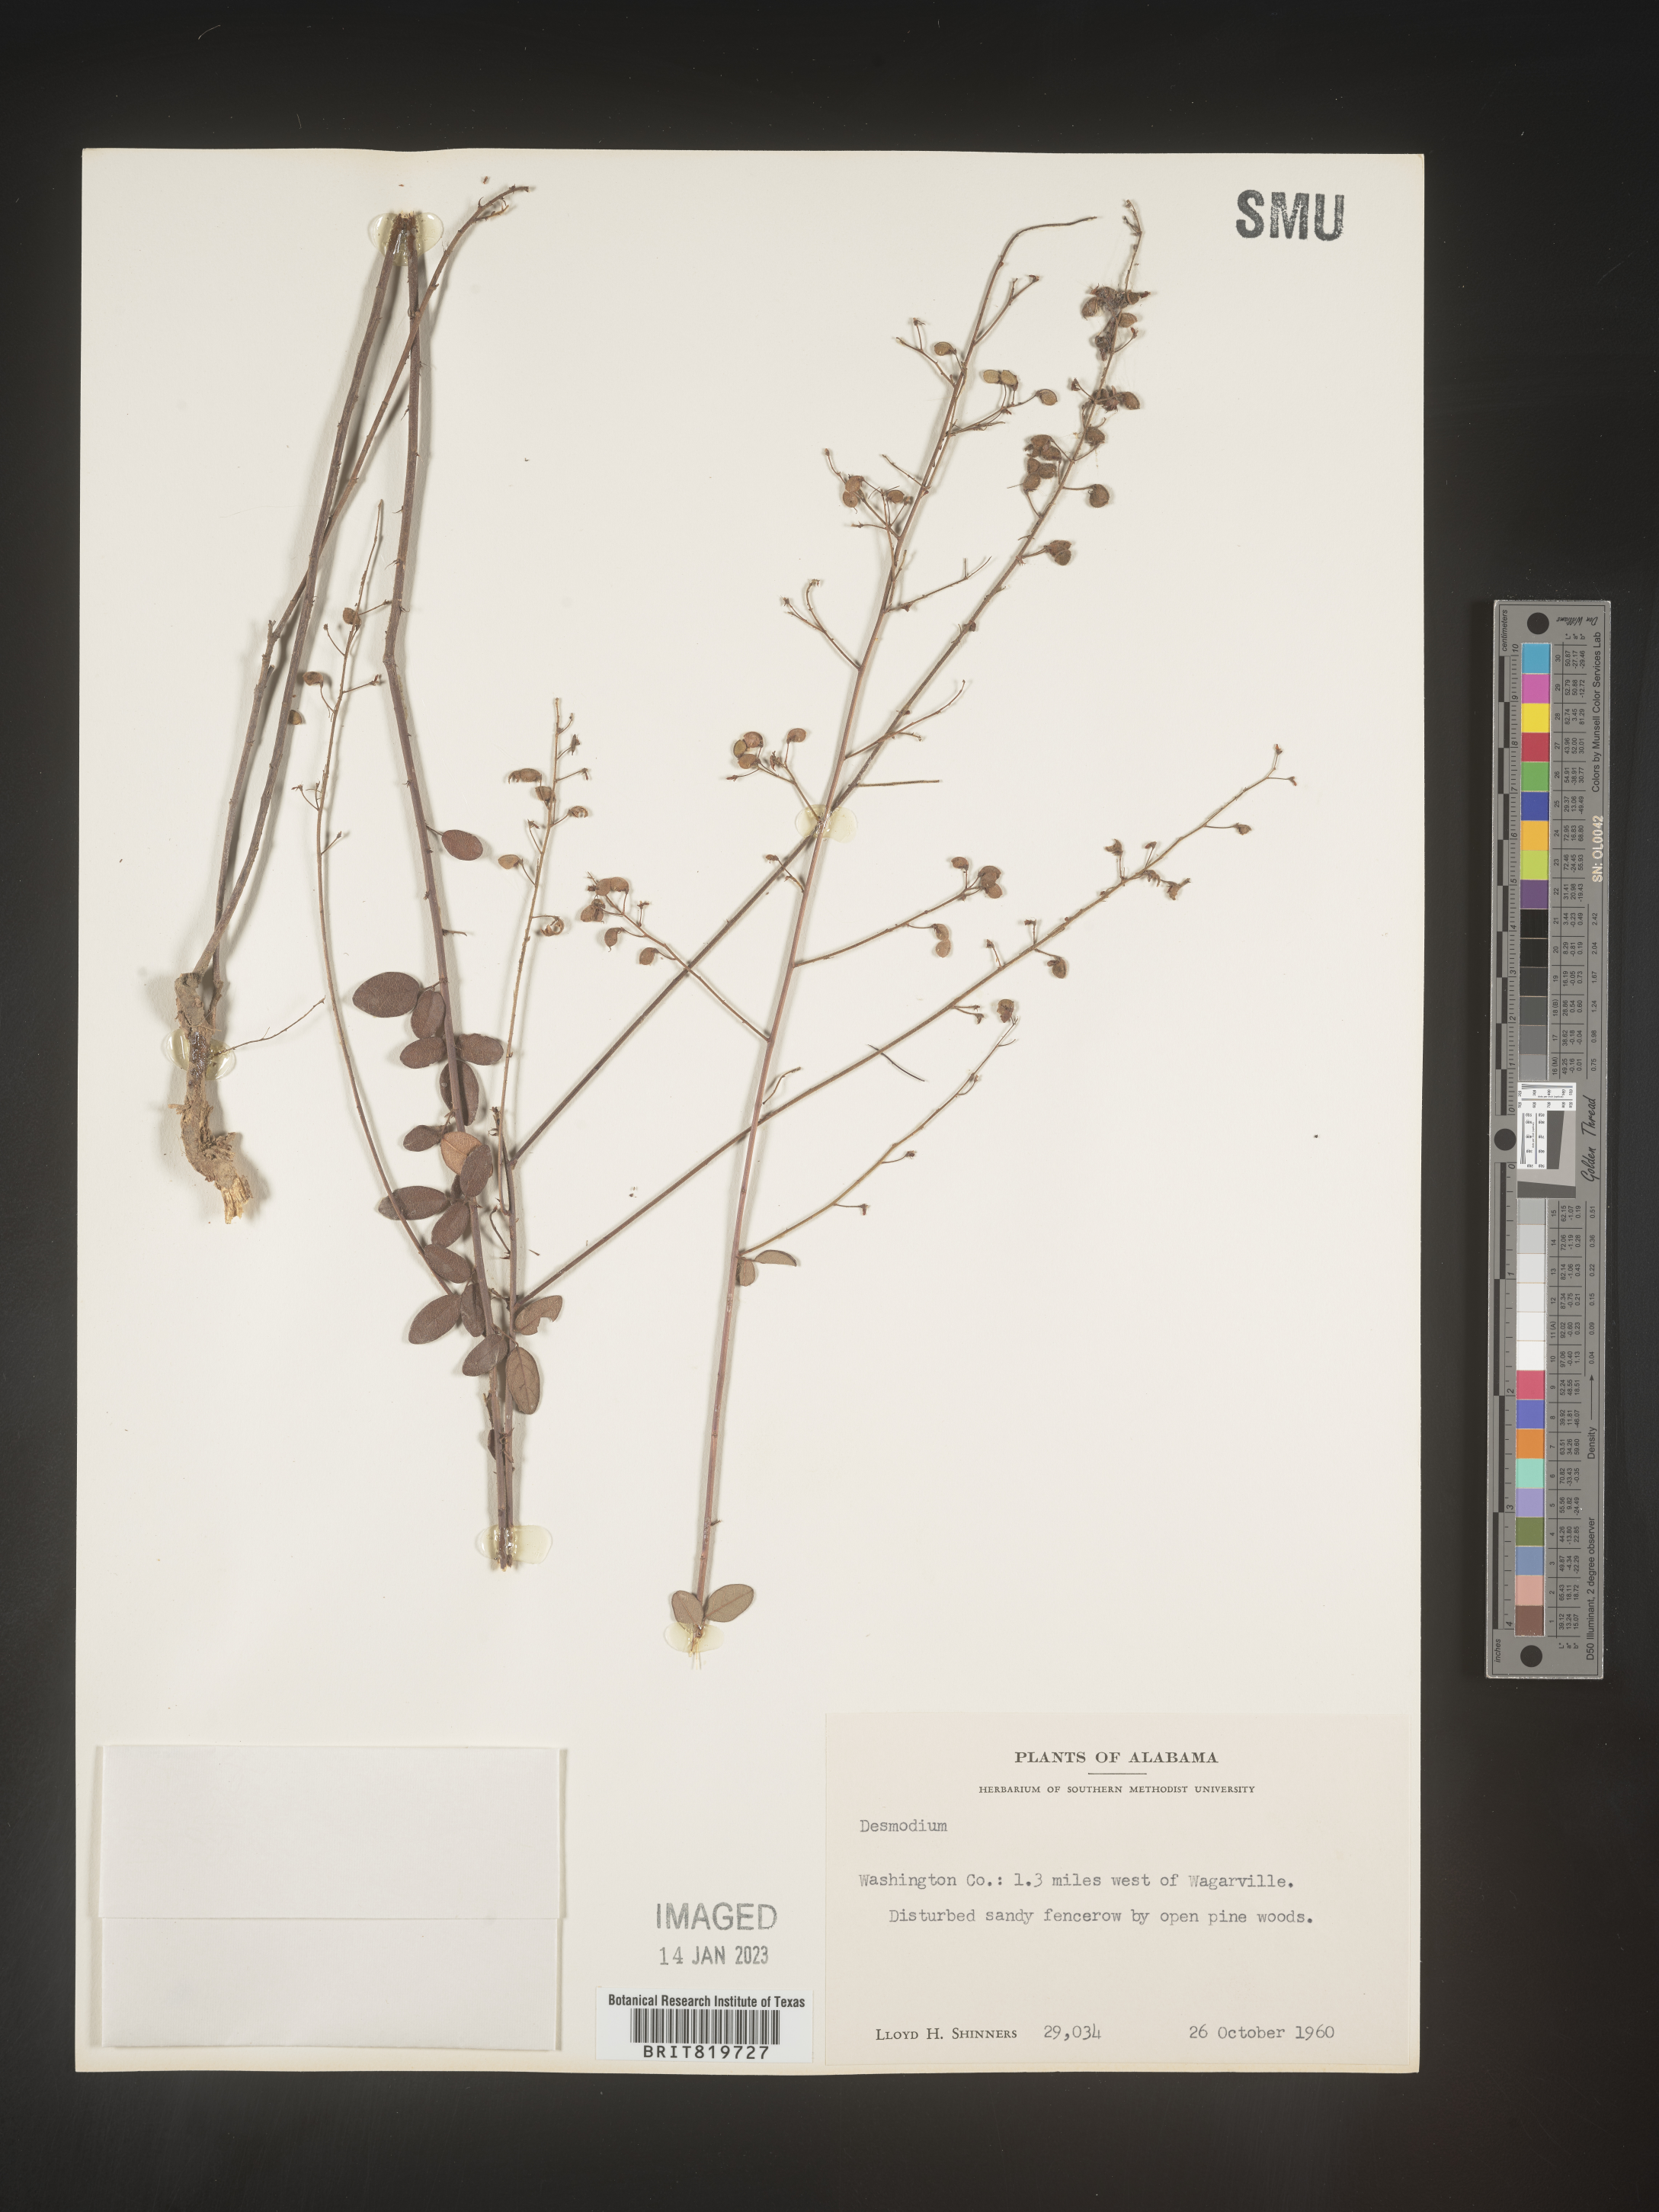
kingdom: Plantae
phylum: Tracheophyta
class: Magnoliopsida
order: Fabales
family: Fabaceae
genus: Desmodium
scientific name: Desmodium
